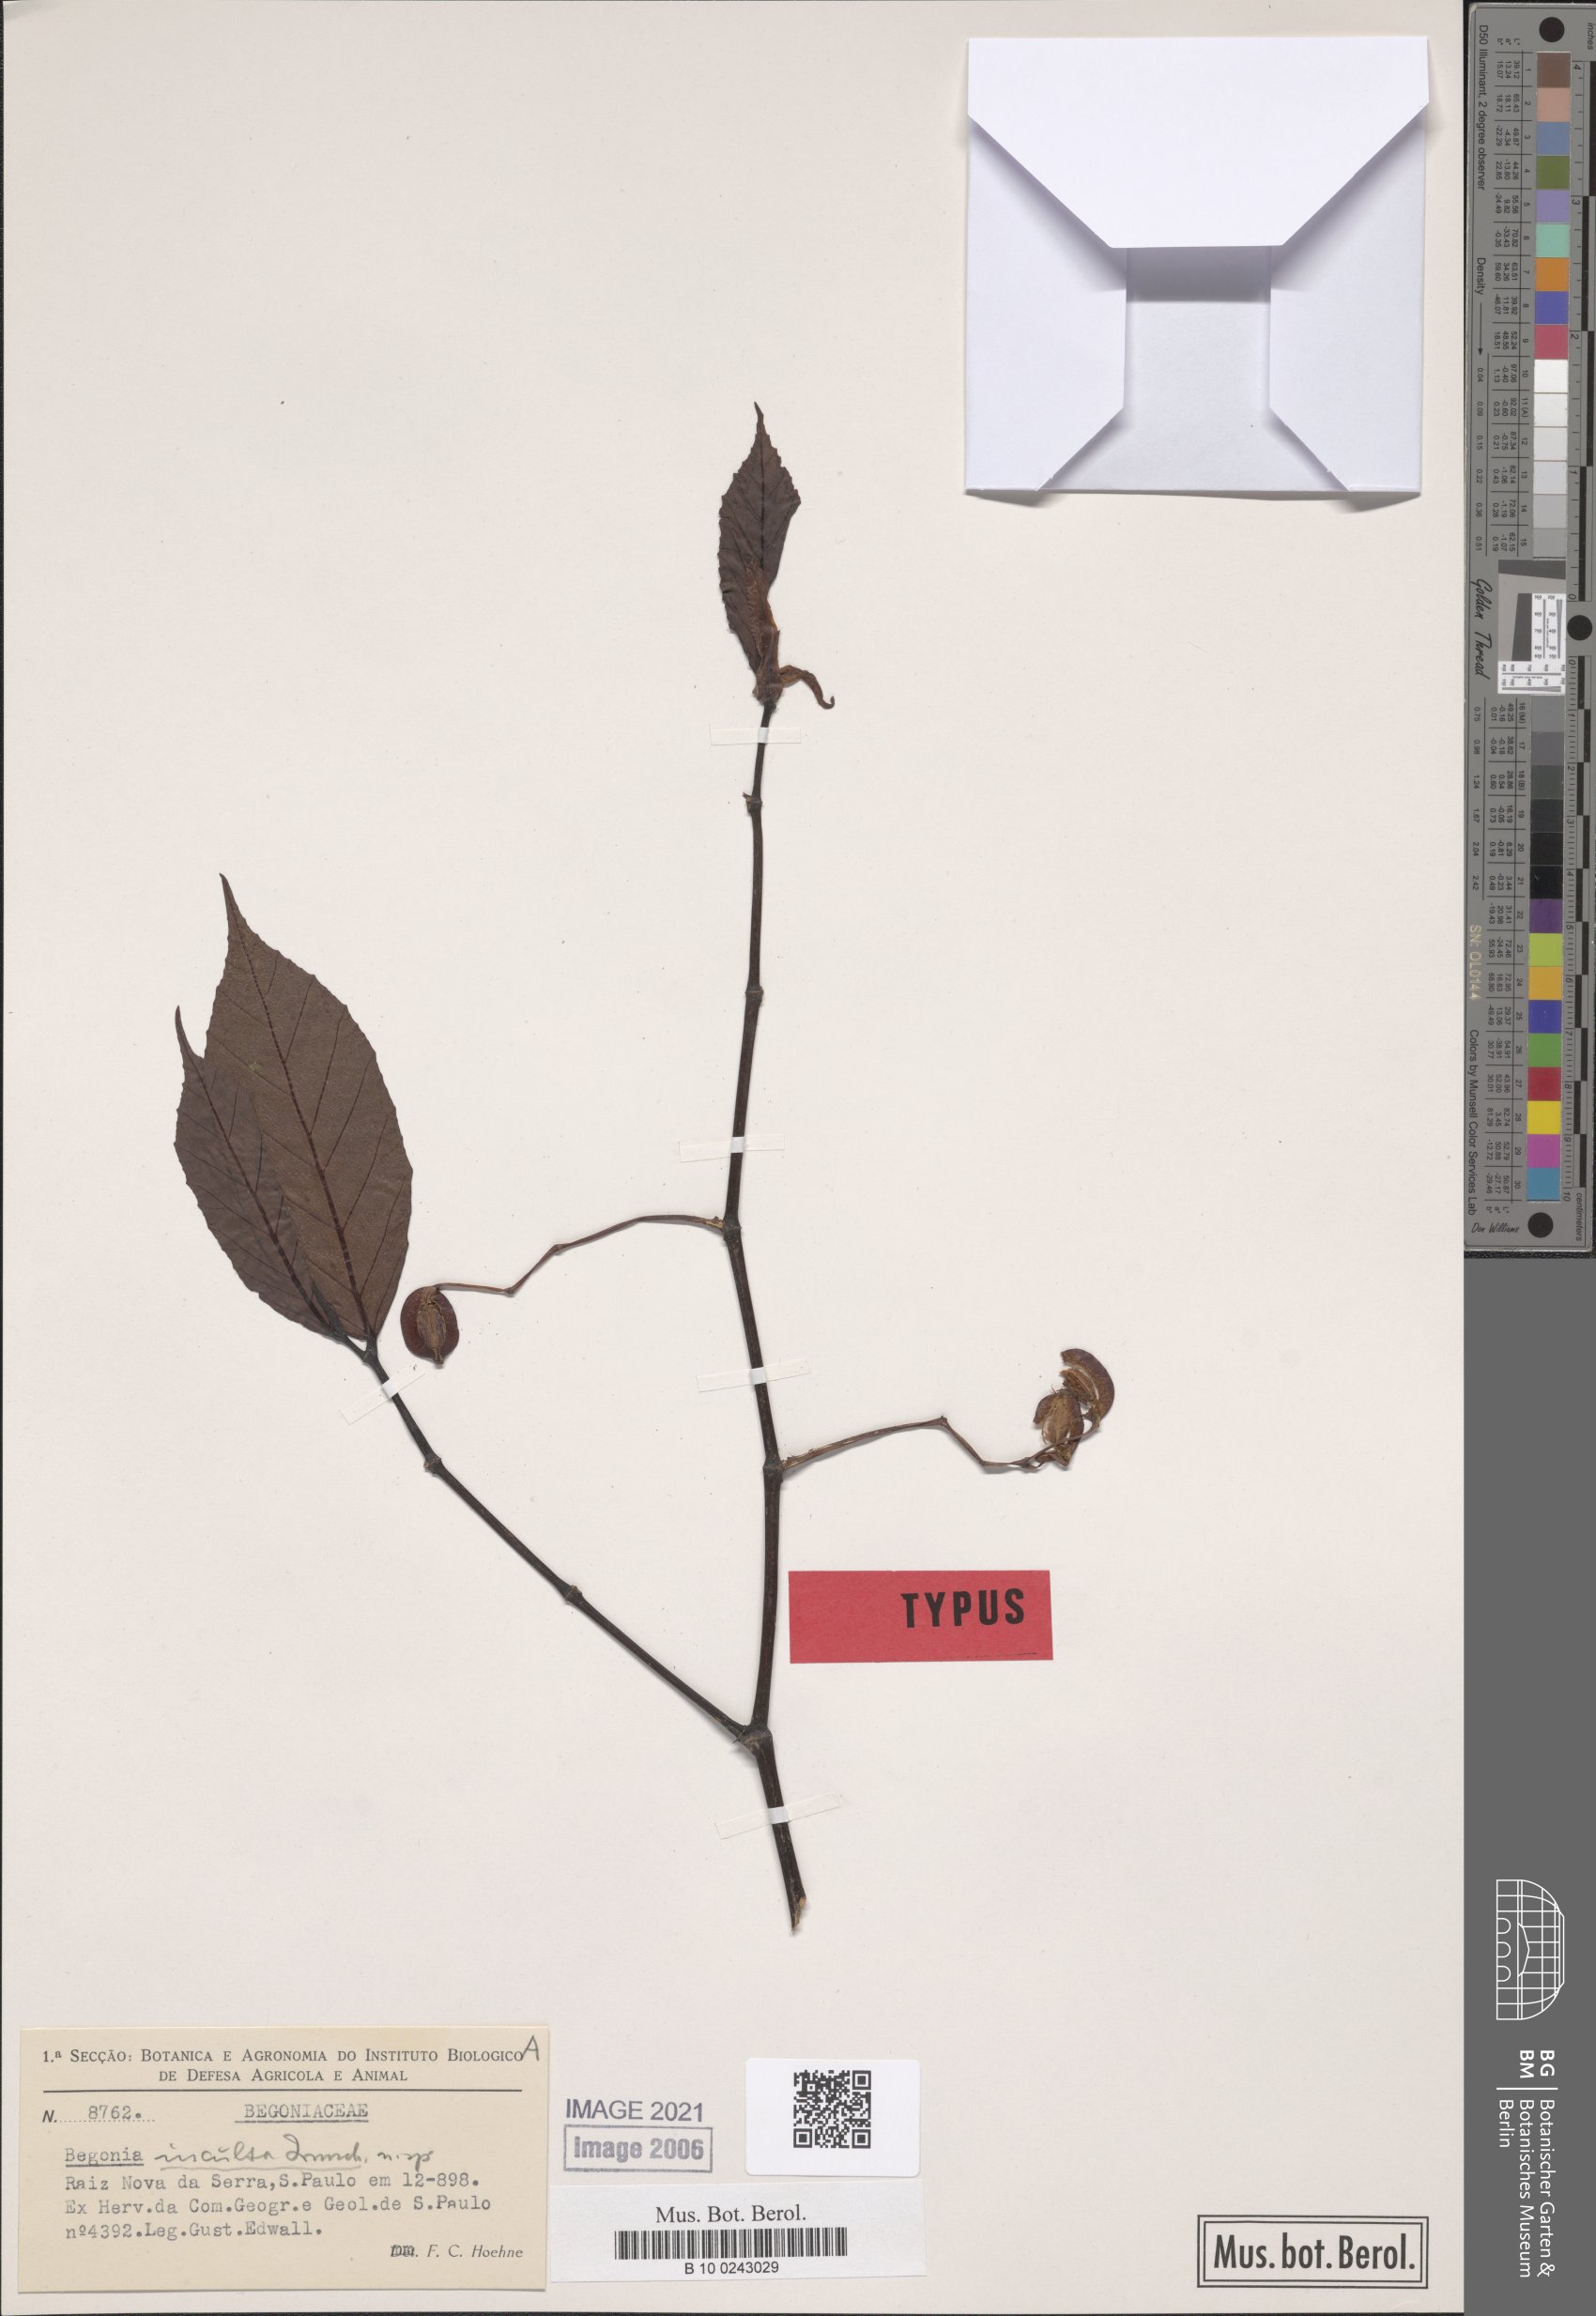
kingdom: Plantae
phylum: Tracheophyta
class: Magnoliopsida
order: Cucurbitales
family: Begoniaceae
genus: Begonia
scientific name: Begonia inculta
